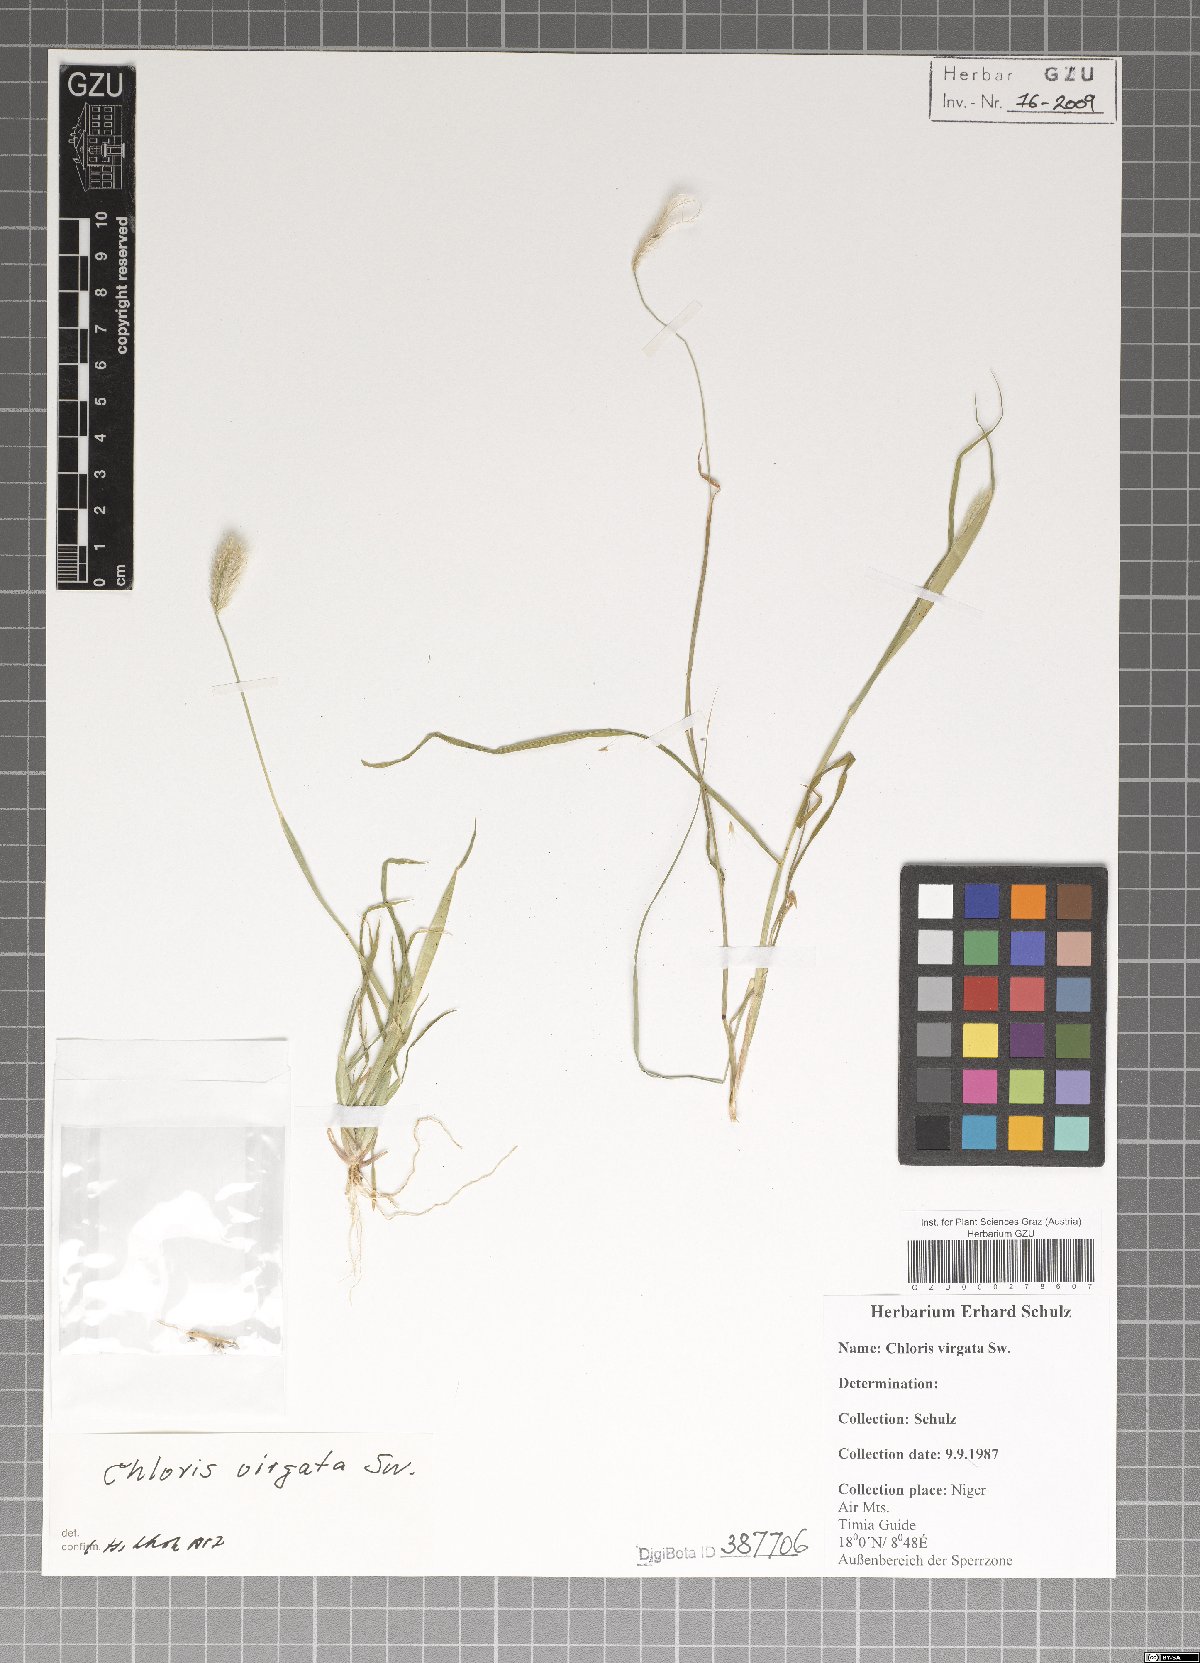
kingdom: Plantae
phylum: Tracheophyta
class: Liliopsida
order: Poales
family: Poaceae
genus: Chloris
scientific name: Chloris virgata
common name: Feathery rhodes-grass
